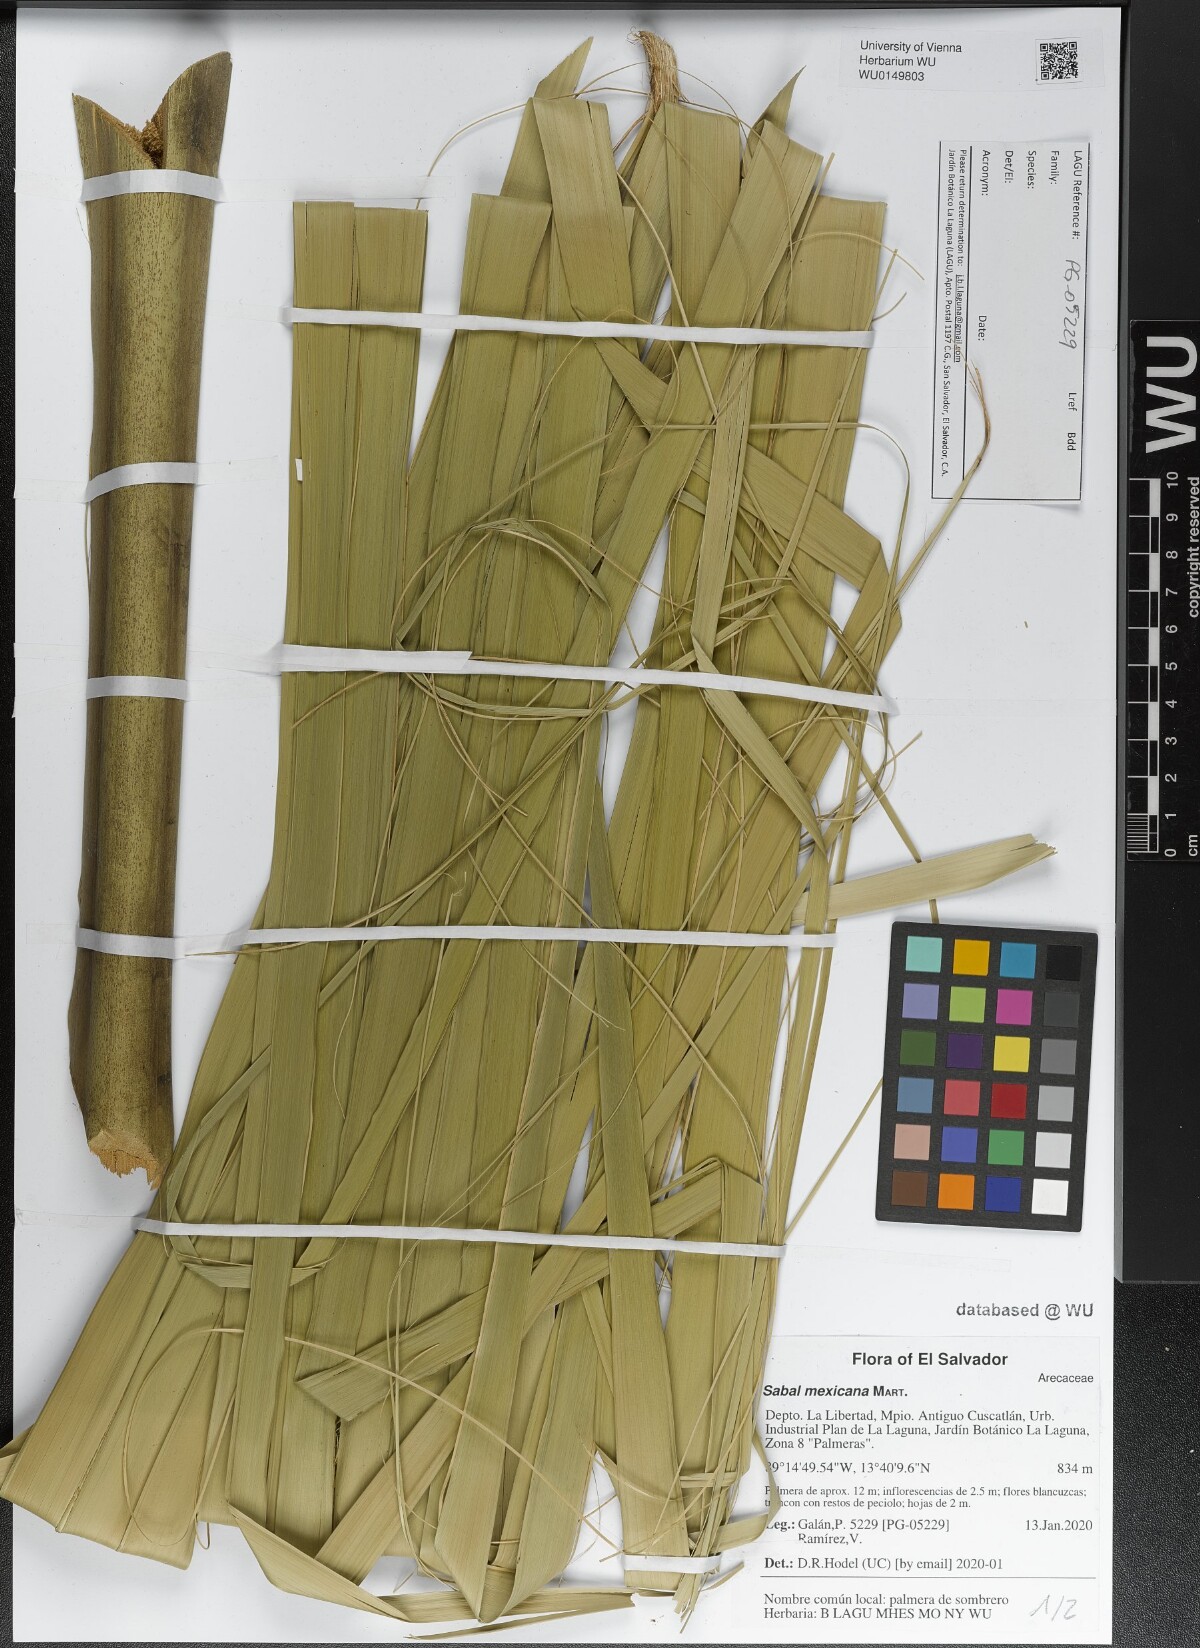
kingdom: Plantae
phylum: Tracheophyta
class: Liliopsida
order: Arecales
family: Arecaceae
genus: Sabal
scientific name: Sabal mexicana
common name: Texas palmetto
